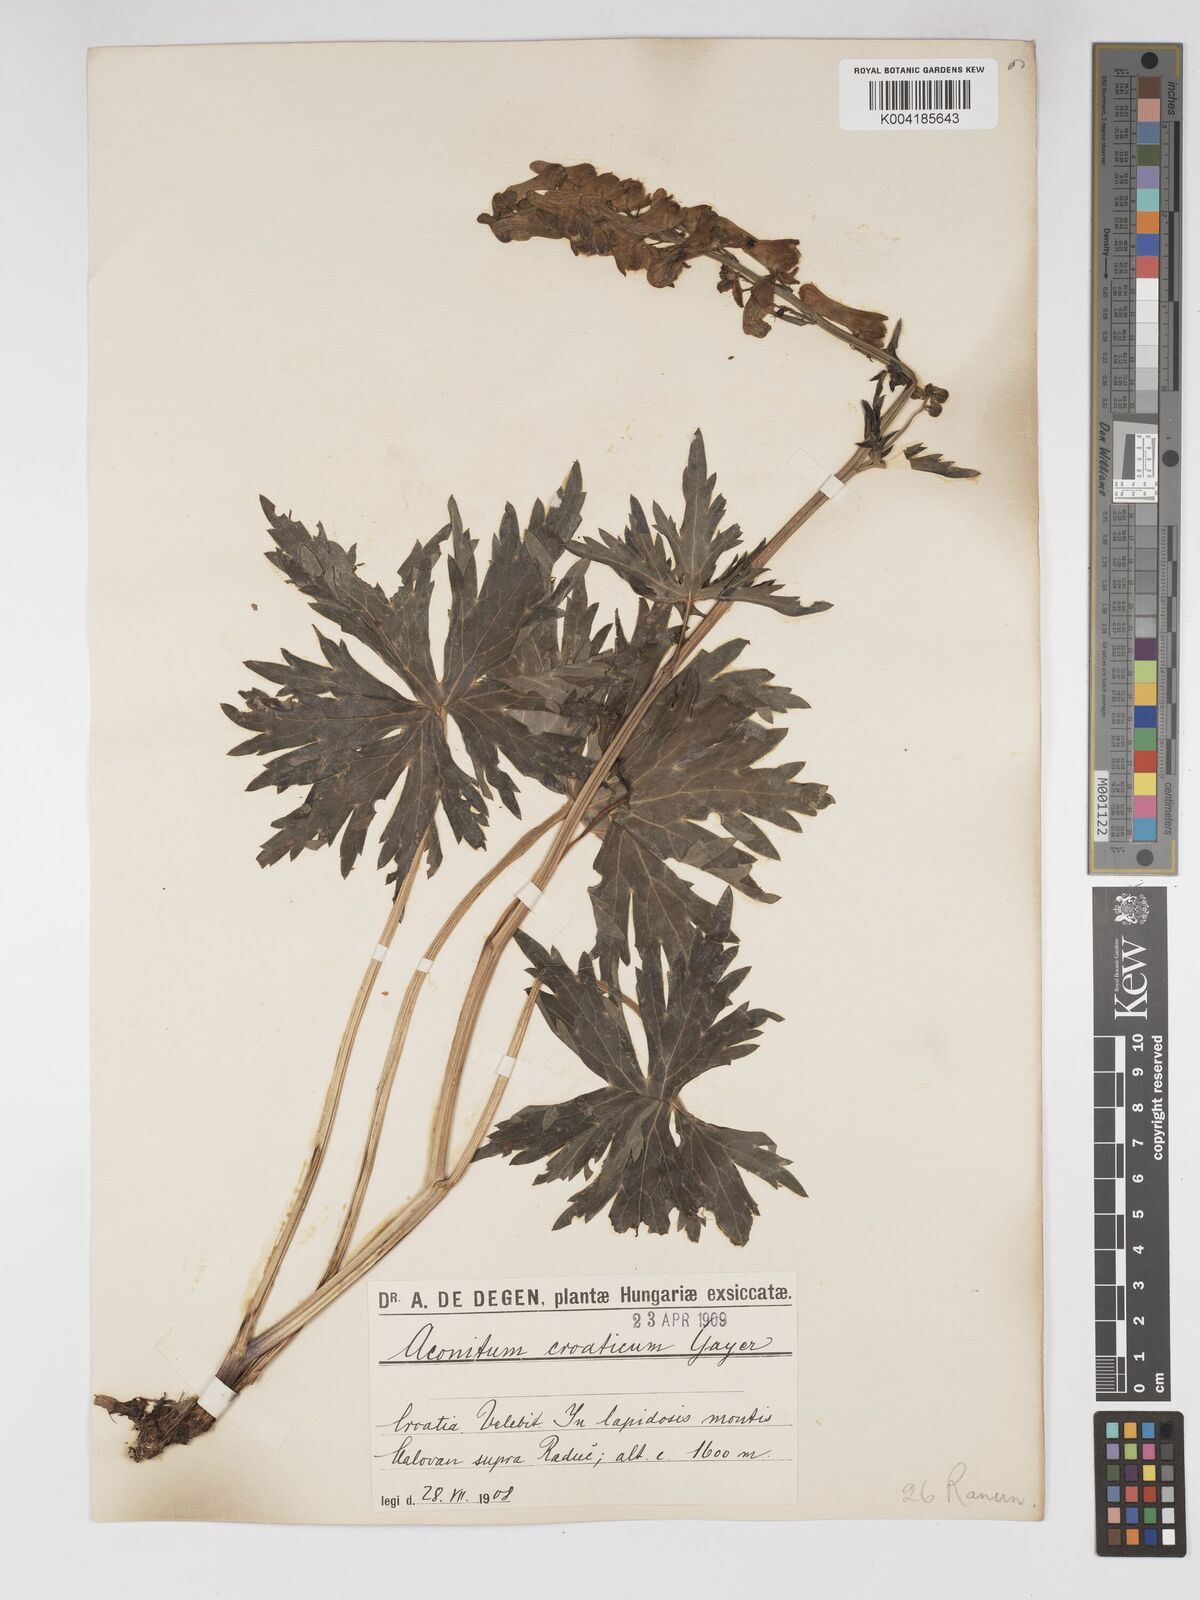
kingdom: Plantae
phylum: Tracheophyta
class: Magnoliopsida
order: Ranunculales
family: Ranunculaceae
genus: Aconitum
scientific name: Aconitum lycoctonum
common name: Wolf's-bane
